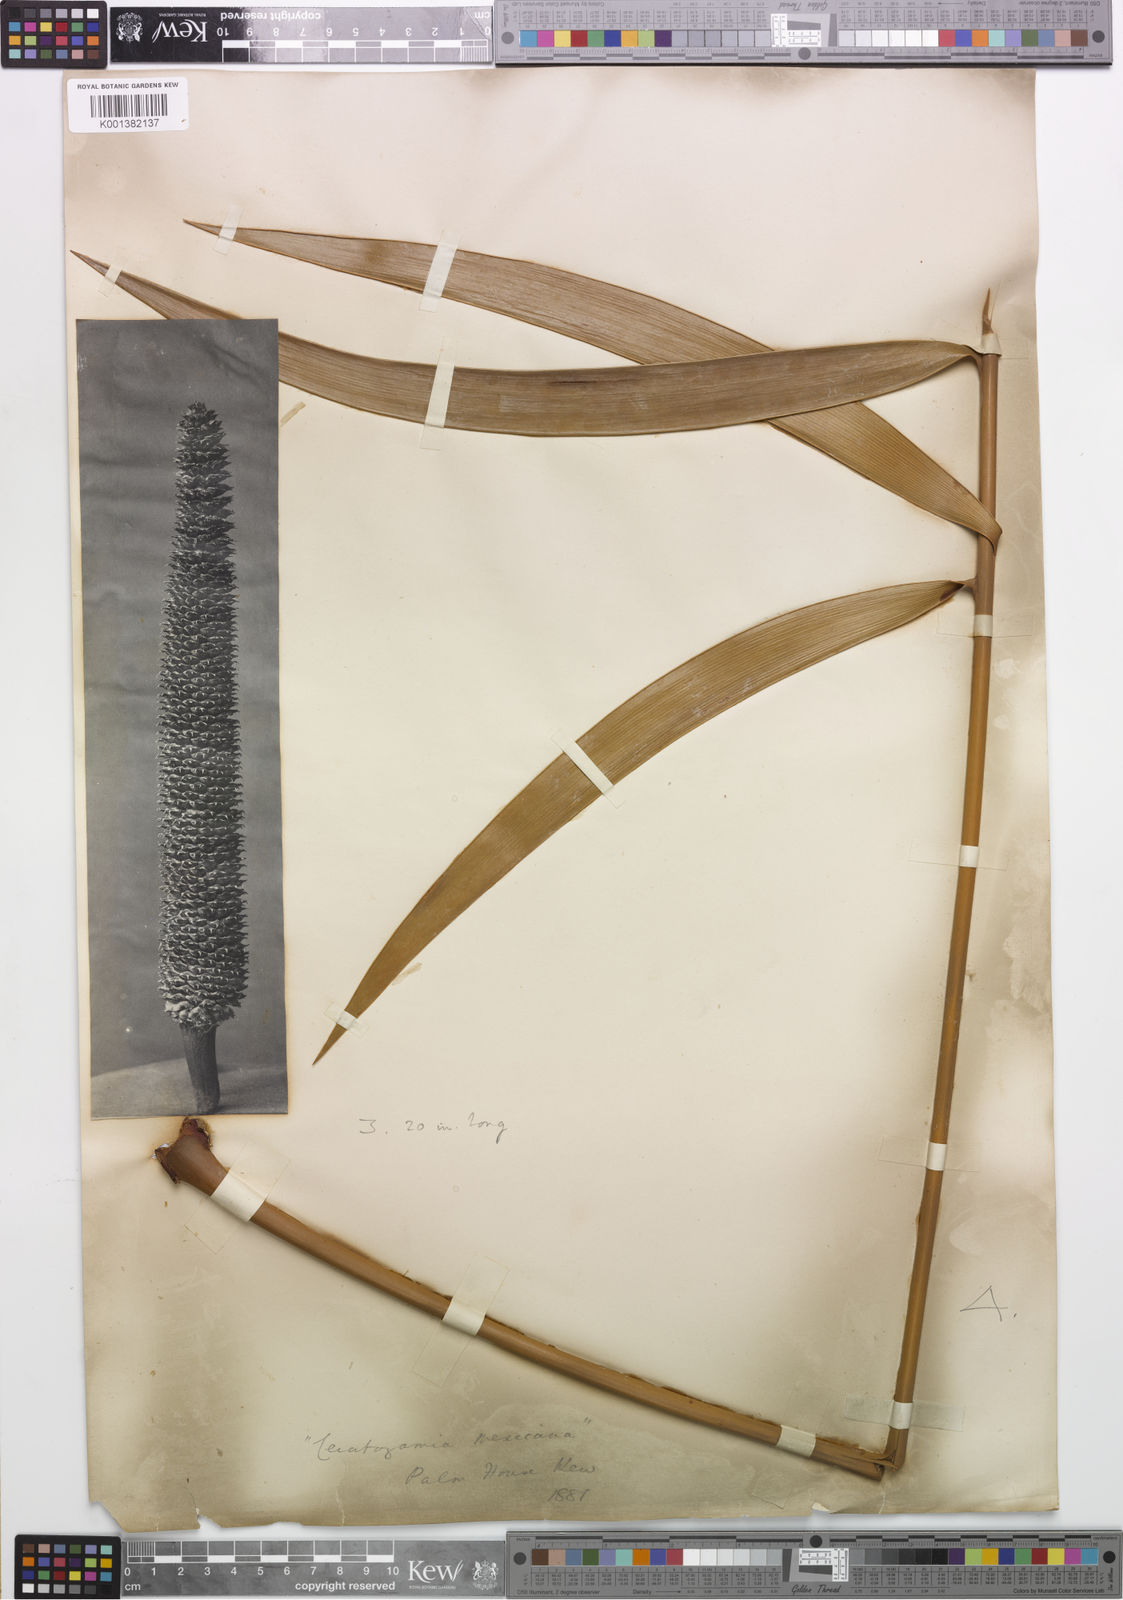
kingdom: Plantae
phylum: Tracheophyta
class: Cycadopsida
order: Cycadales
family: Zamiaceae
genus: Ceratozamia
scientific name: Ceratozamia mexicana
